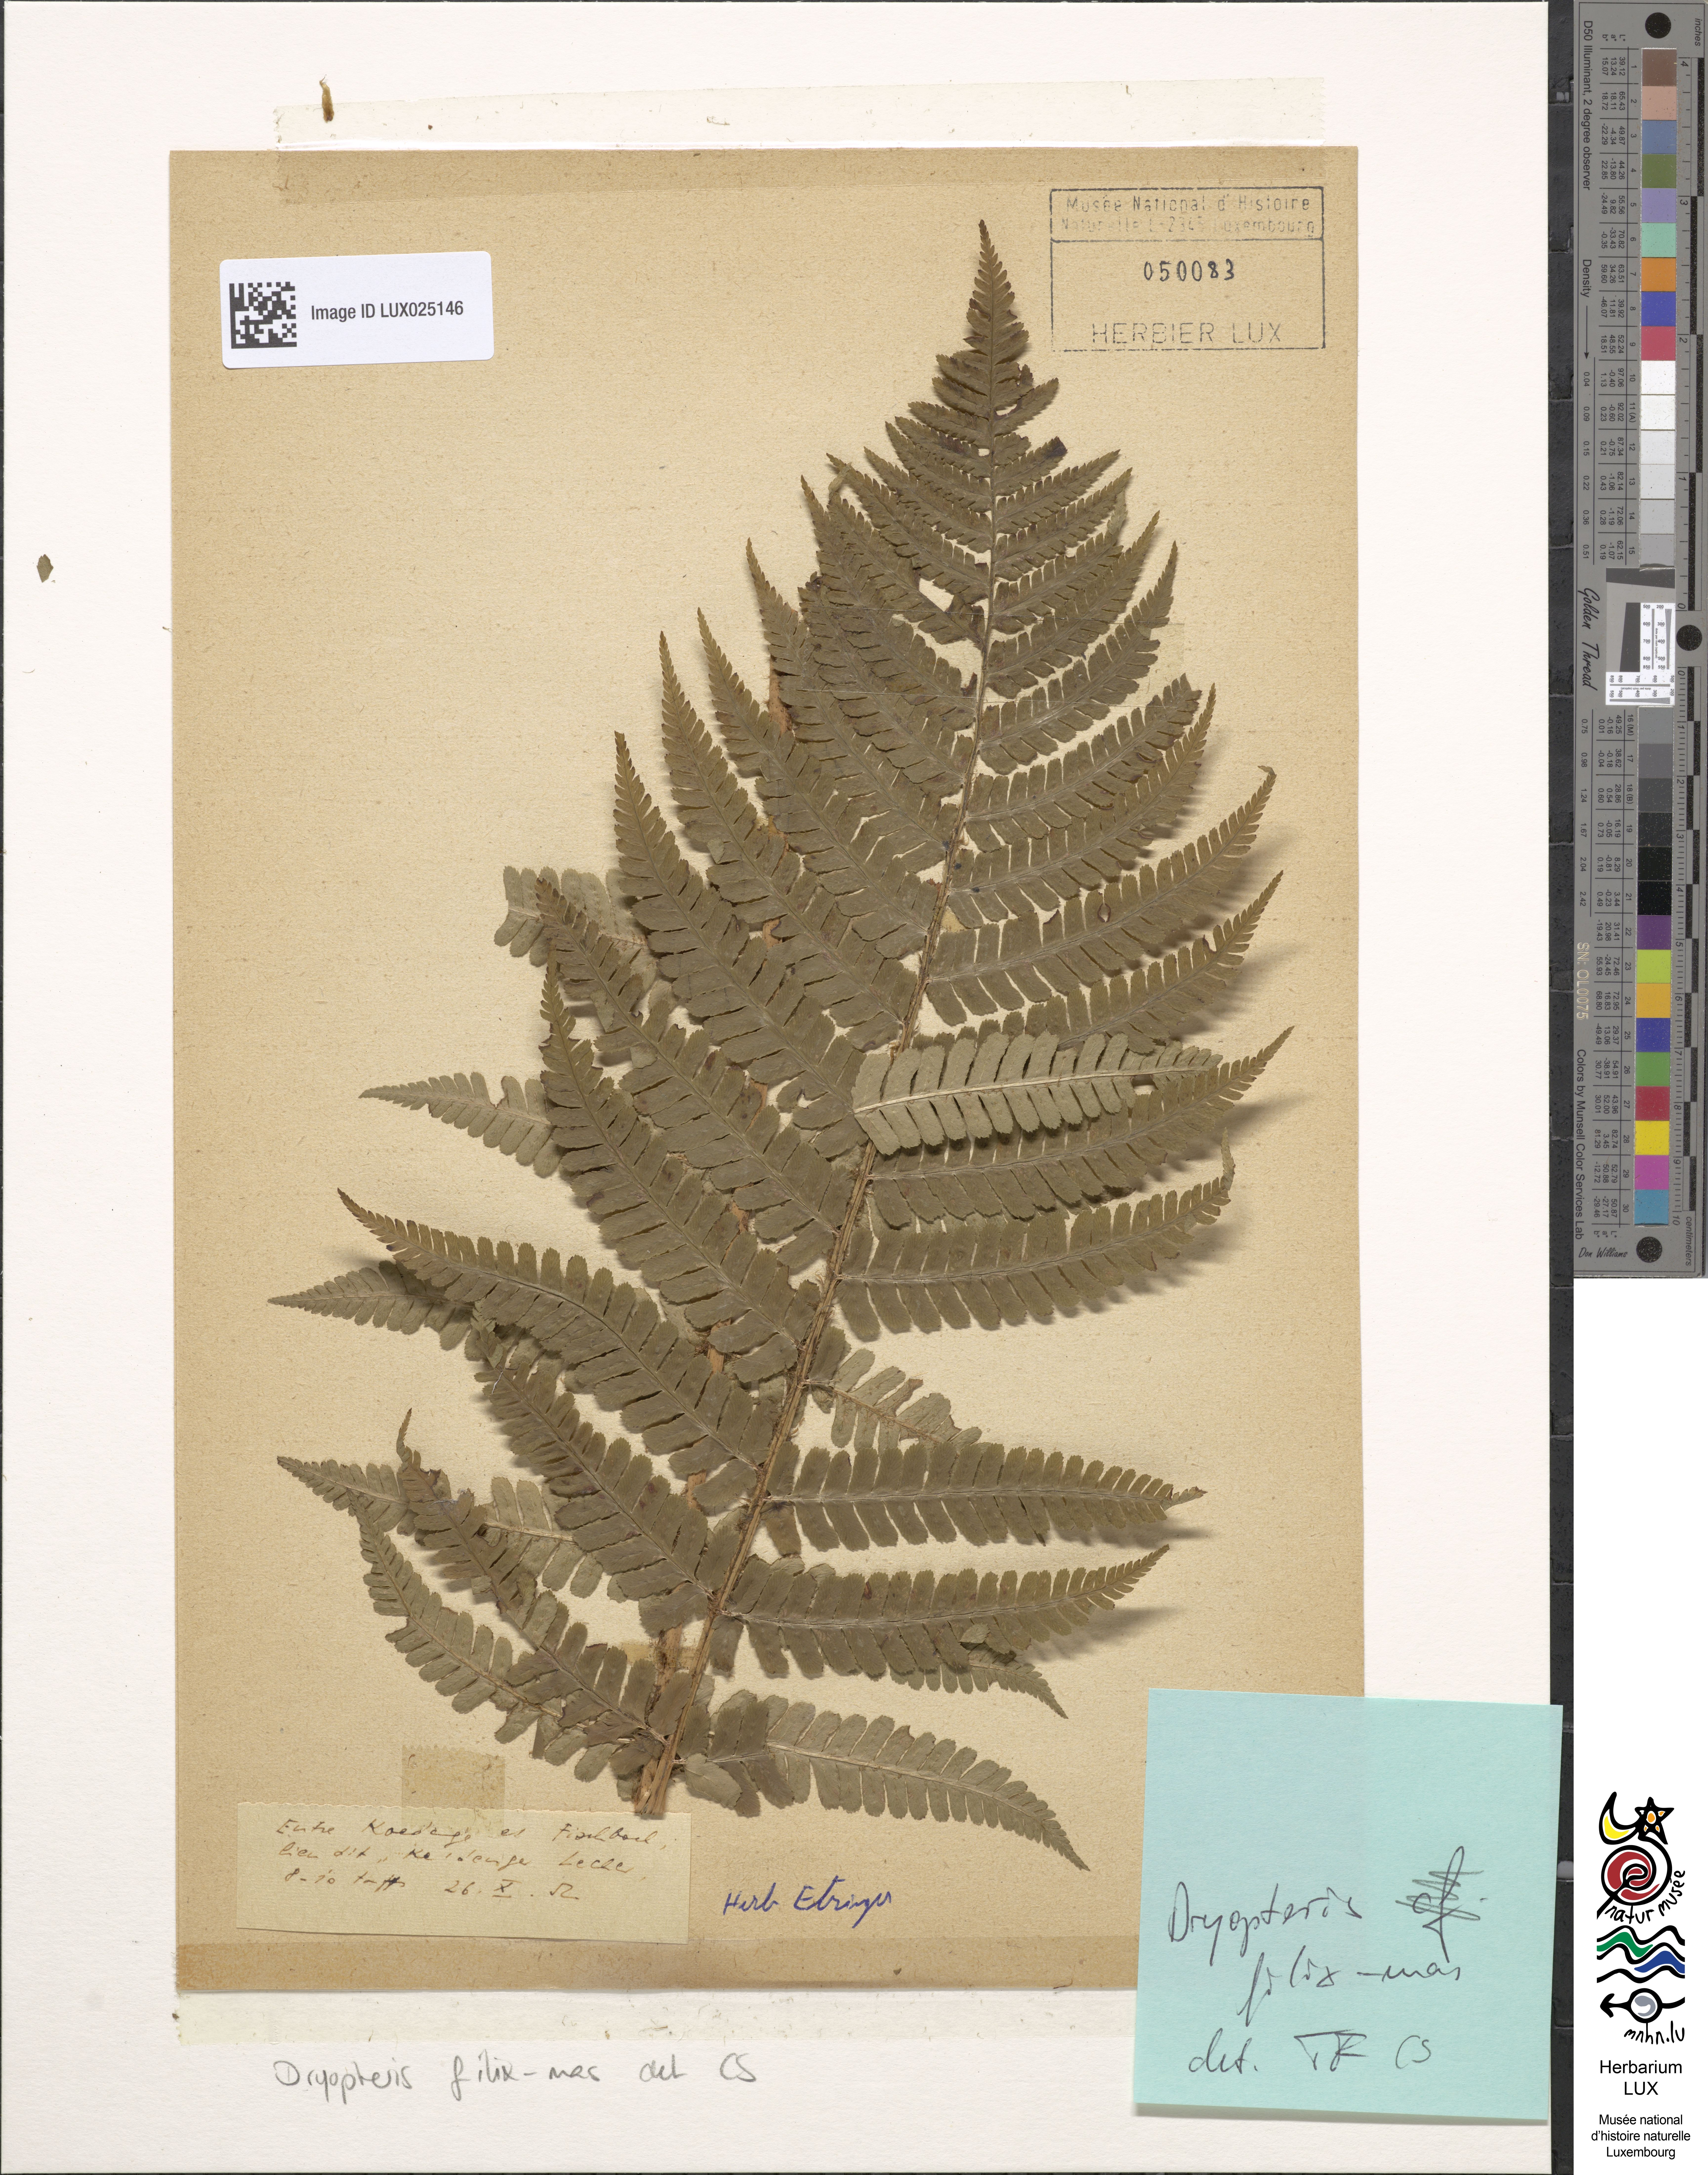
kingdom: Plantae
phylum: Tracheophyta
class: Polypodiopsida
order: Polypodiales
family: Dryopteridaceae
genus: Dryopteris
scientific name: Dryopteris filix-mas
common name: Male fern
